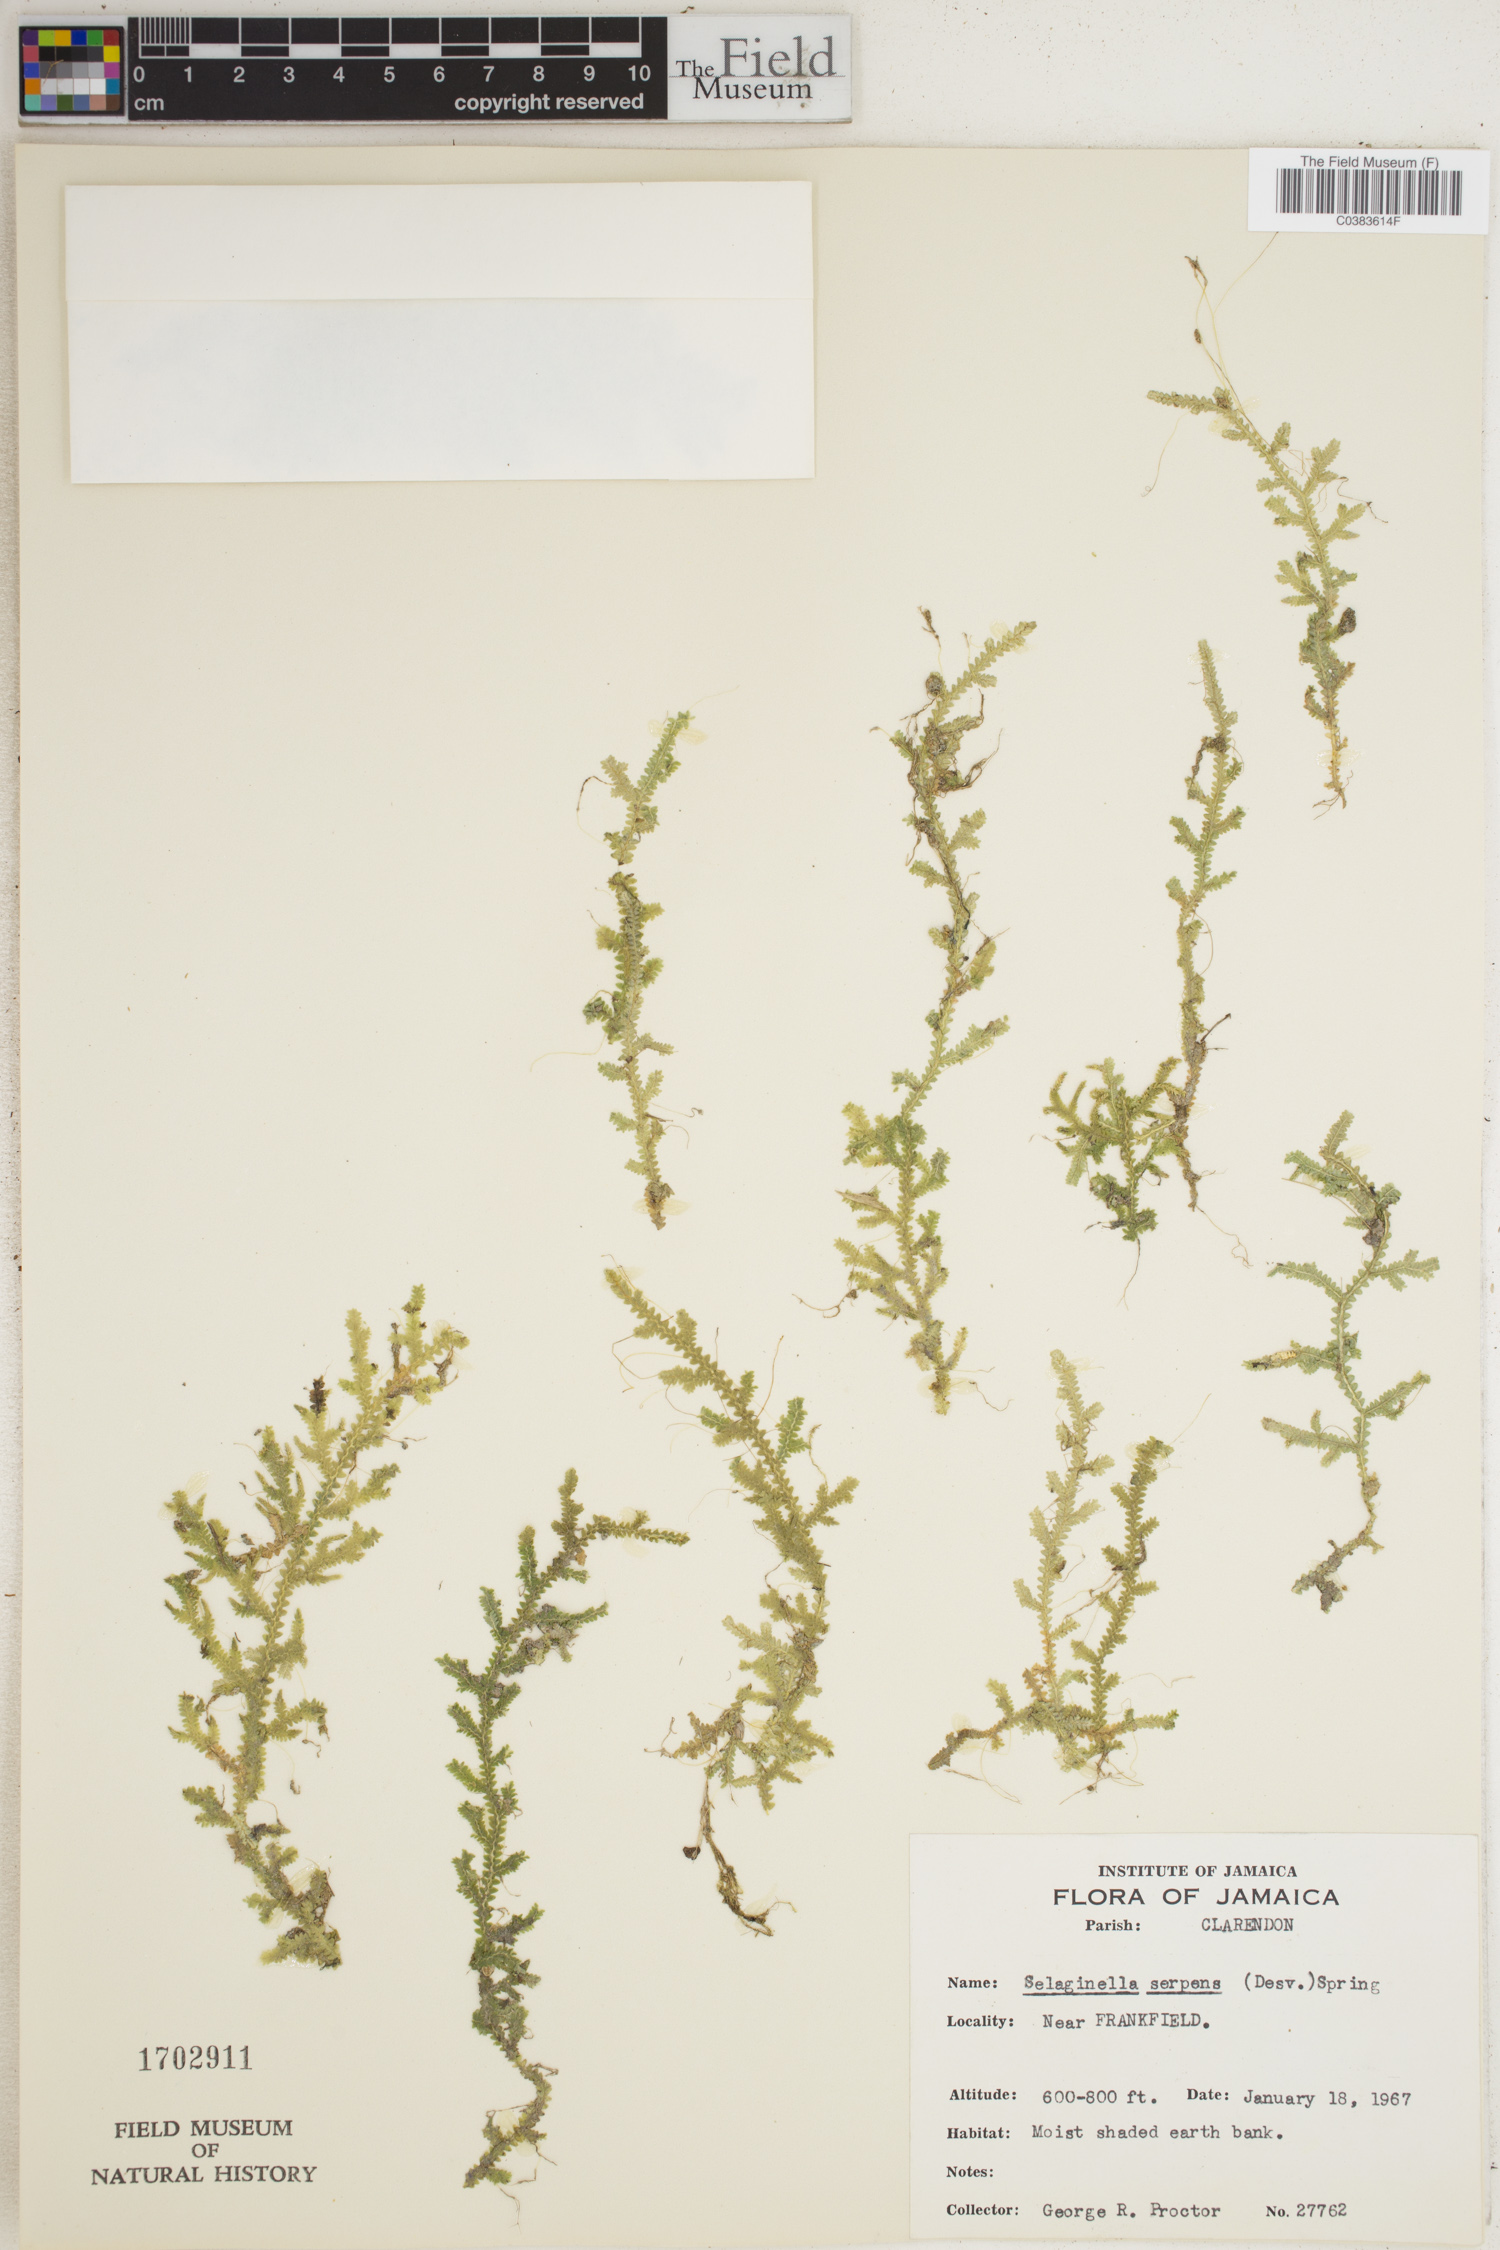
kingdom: Plantae
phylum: Tracheophyta
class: Lycopodiopsida
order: Selaginellales
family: Selaginellaceae
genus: Selaginella
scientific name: Selaginella serpens
